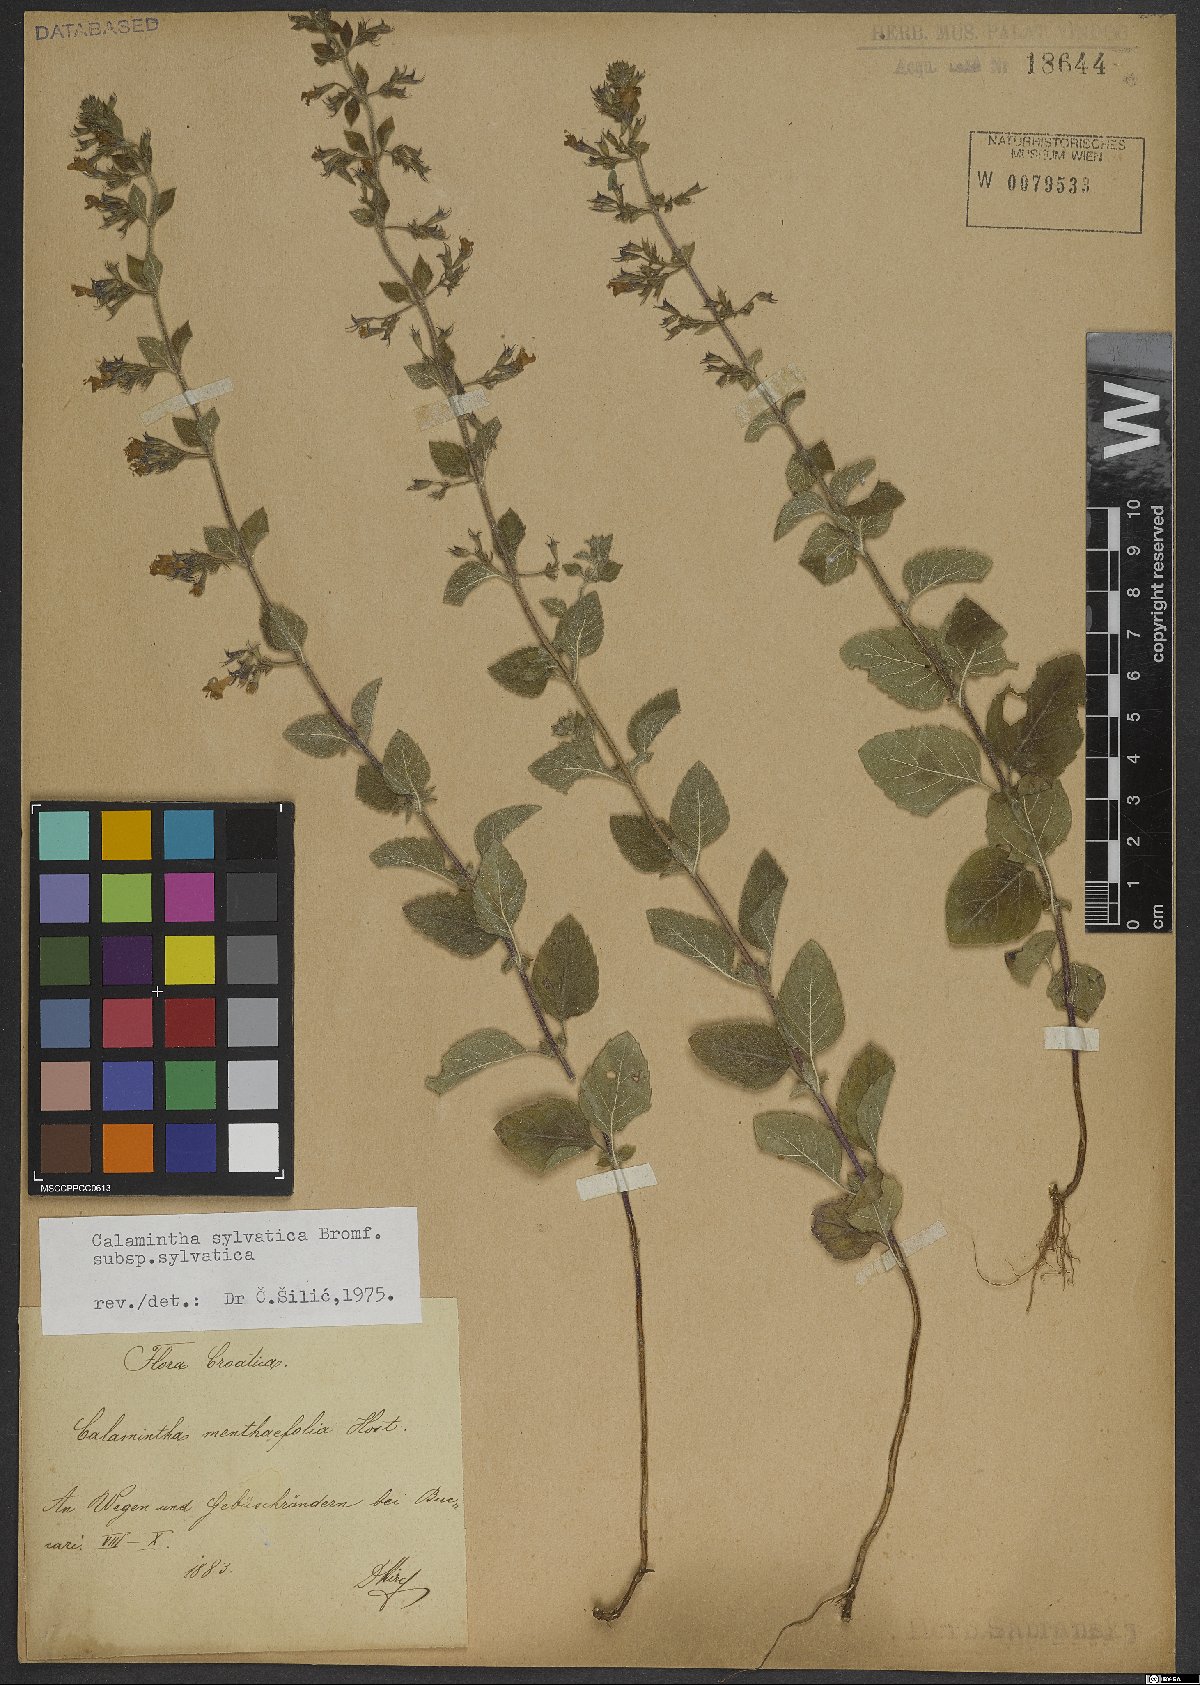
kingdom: Plantae
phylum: Tracheophyta
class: Magnoliopsida
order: Lamiales
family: Lamiaceae
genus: Clinopodium
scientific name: Clinopodium menthifolium
